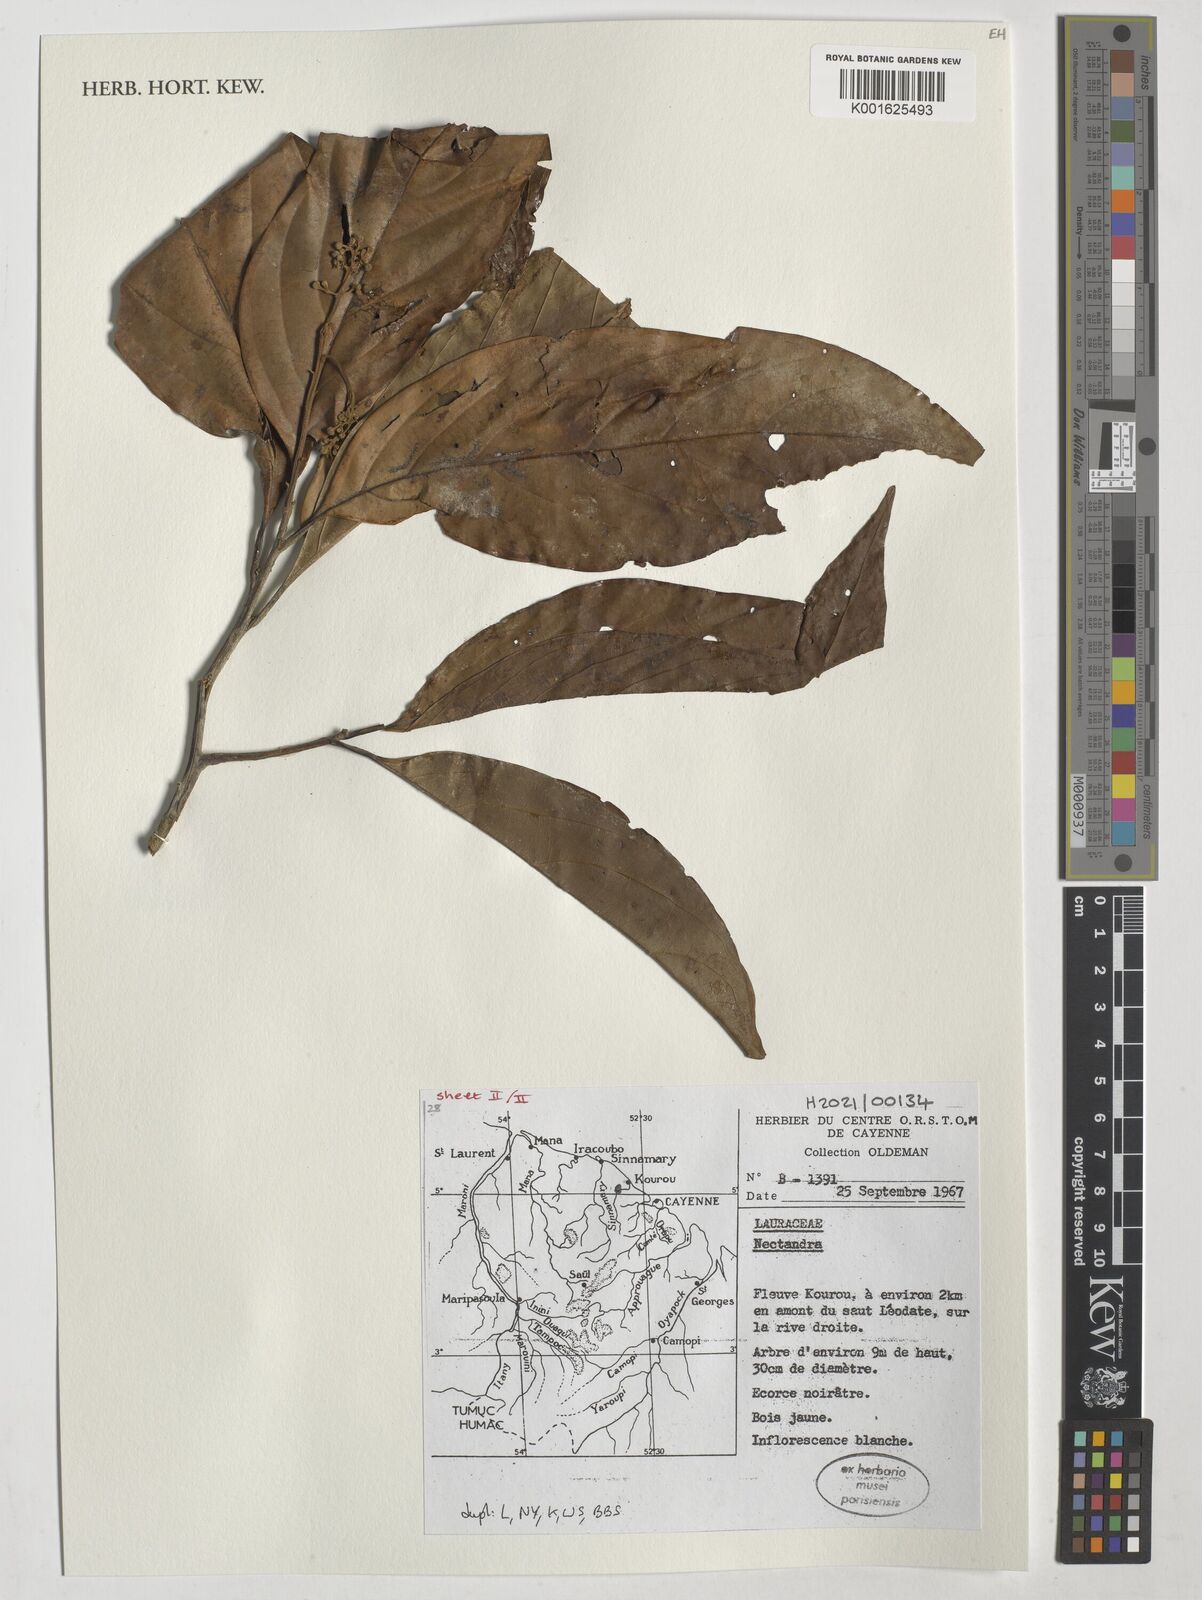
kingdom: Plantae
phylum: Tracheophyta
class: Magnoliopsida
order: Laurales
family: Lauraceae
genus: Nectandra
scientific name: Nectandra
